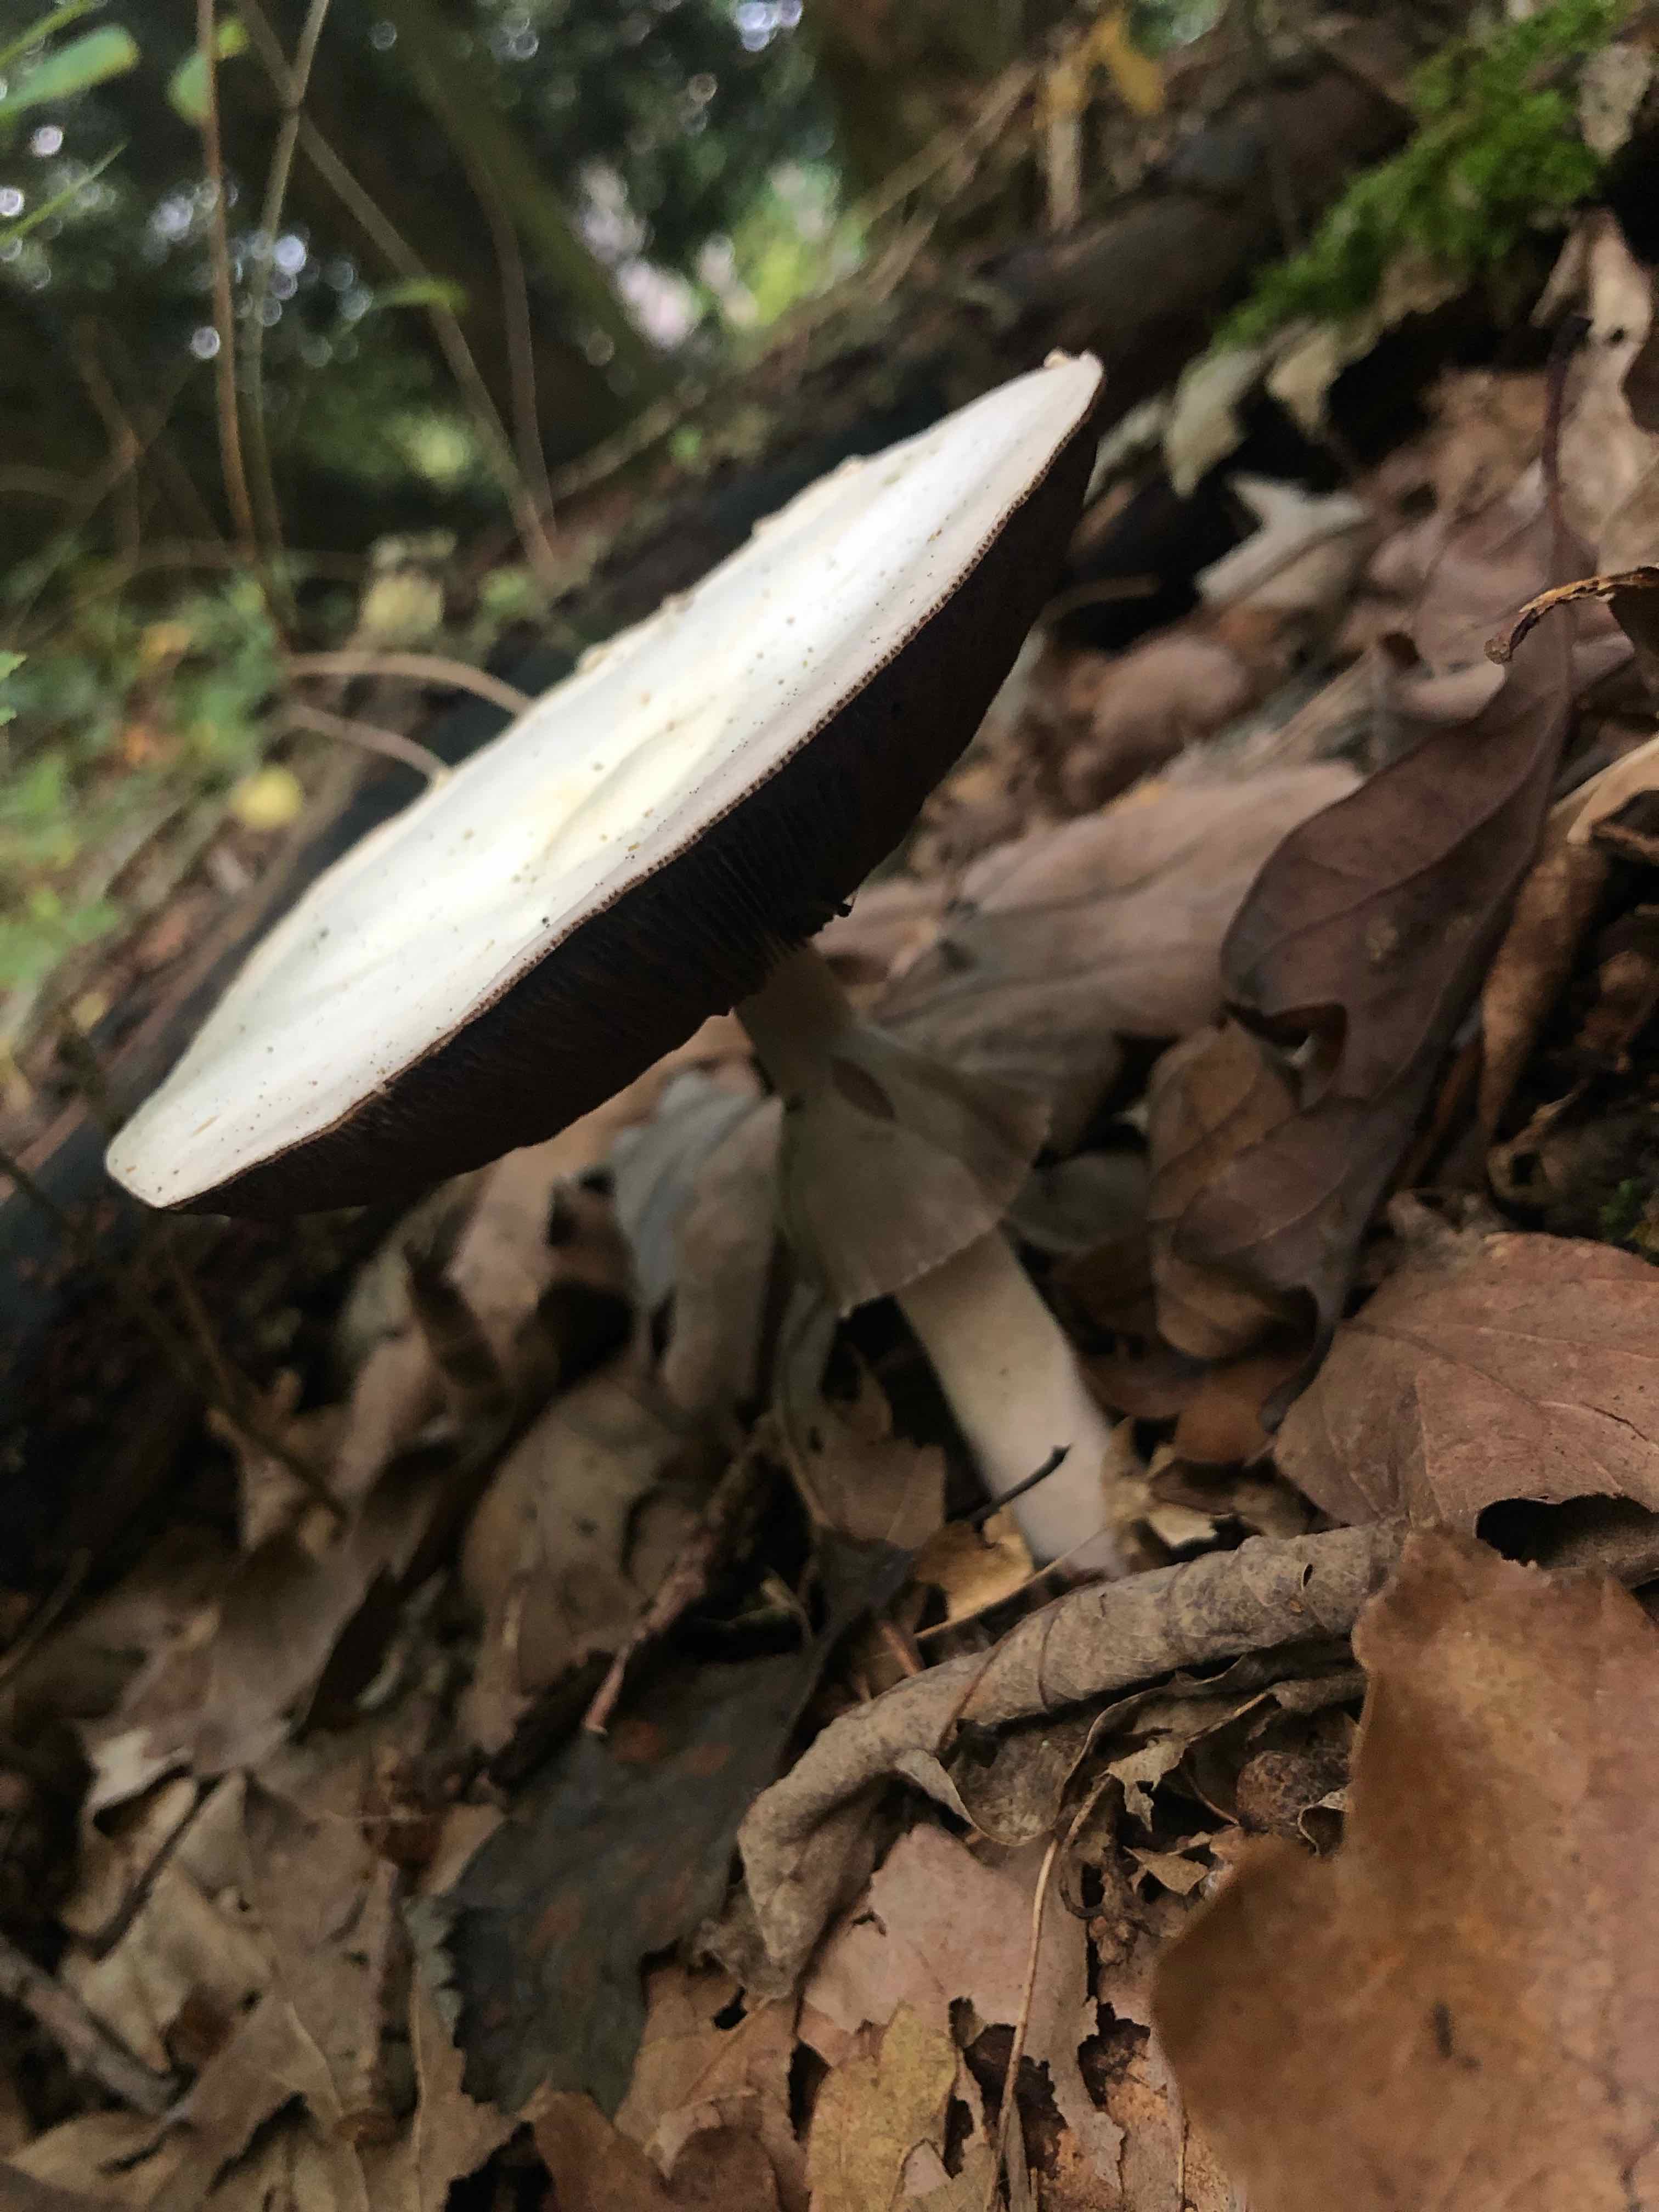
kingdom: Fungi
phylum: Basidiomycota
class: Agaricomycetes
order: Agaricales
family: Agaricaceae
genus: Agaricus
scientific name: Agaricus
